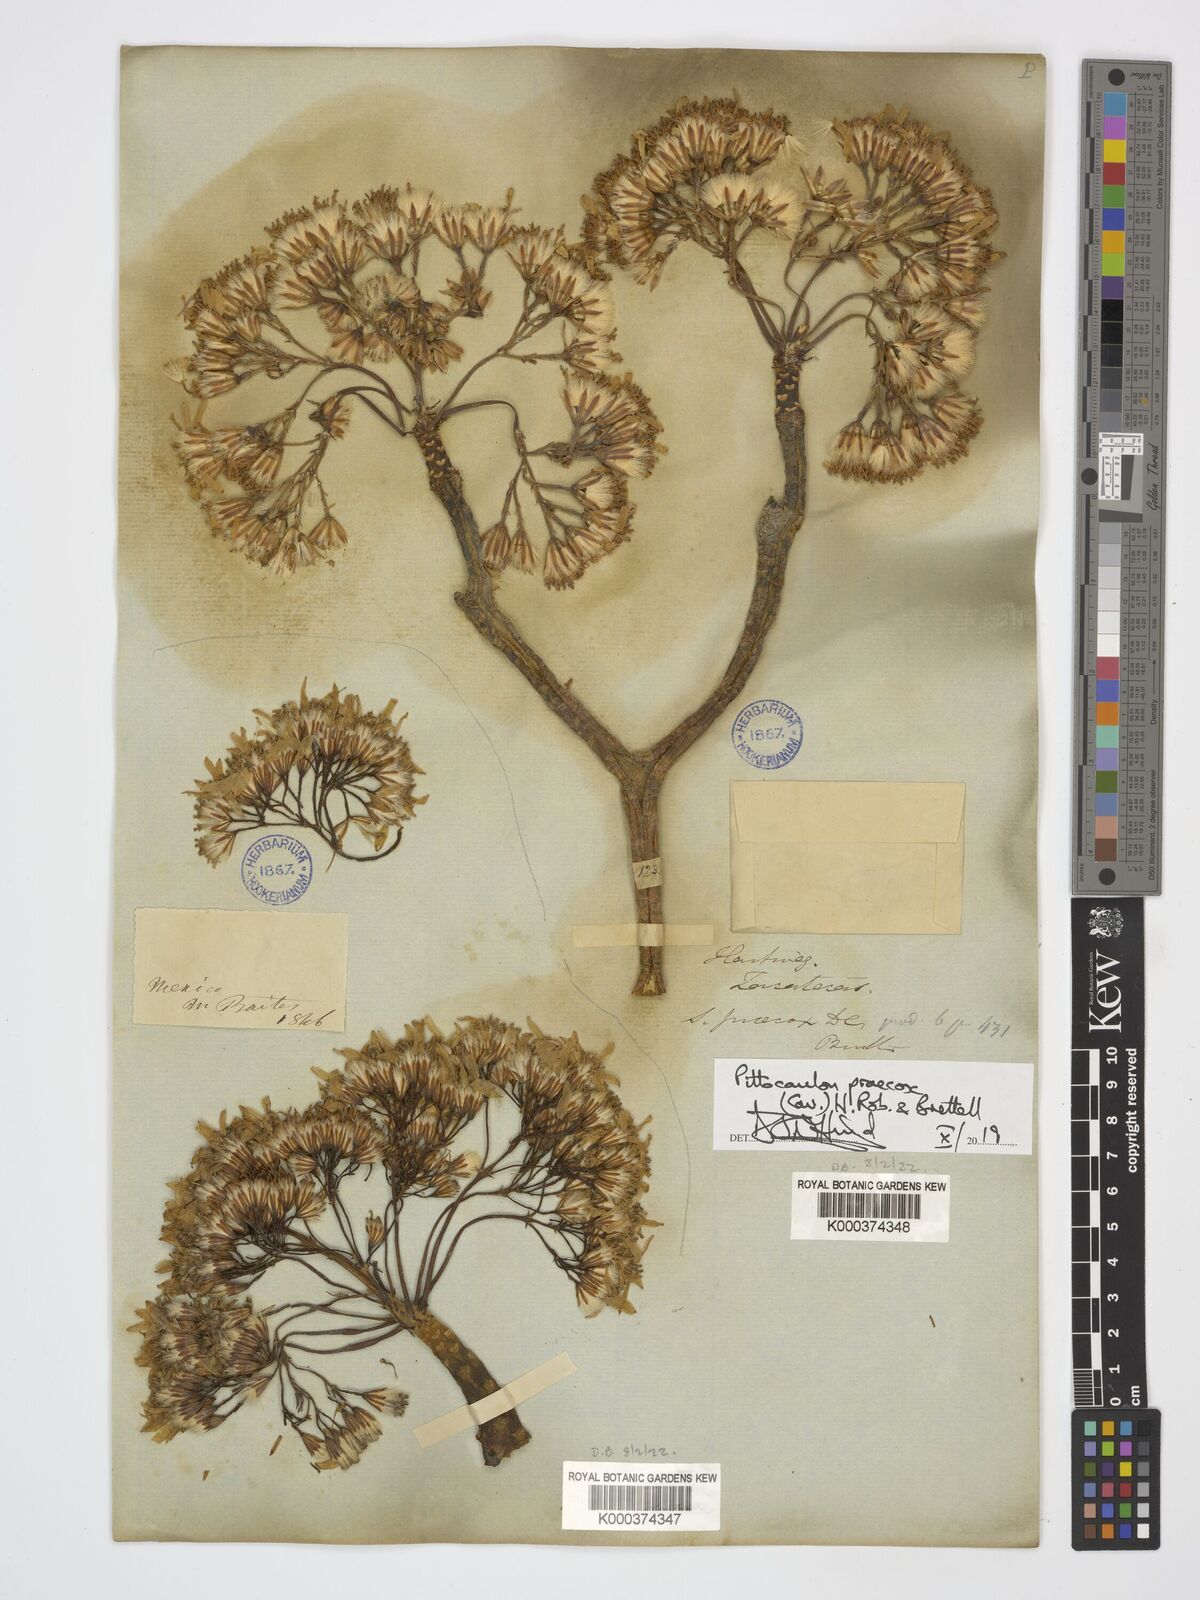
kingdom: Plantae
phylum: Tracheophyta
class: Magnoliopsida
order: Asterales
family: Asteraceae
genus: Pittocaulon
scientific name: Pittocaulon praecox
